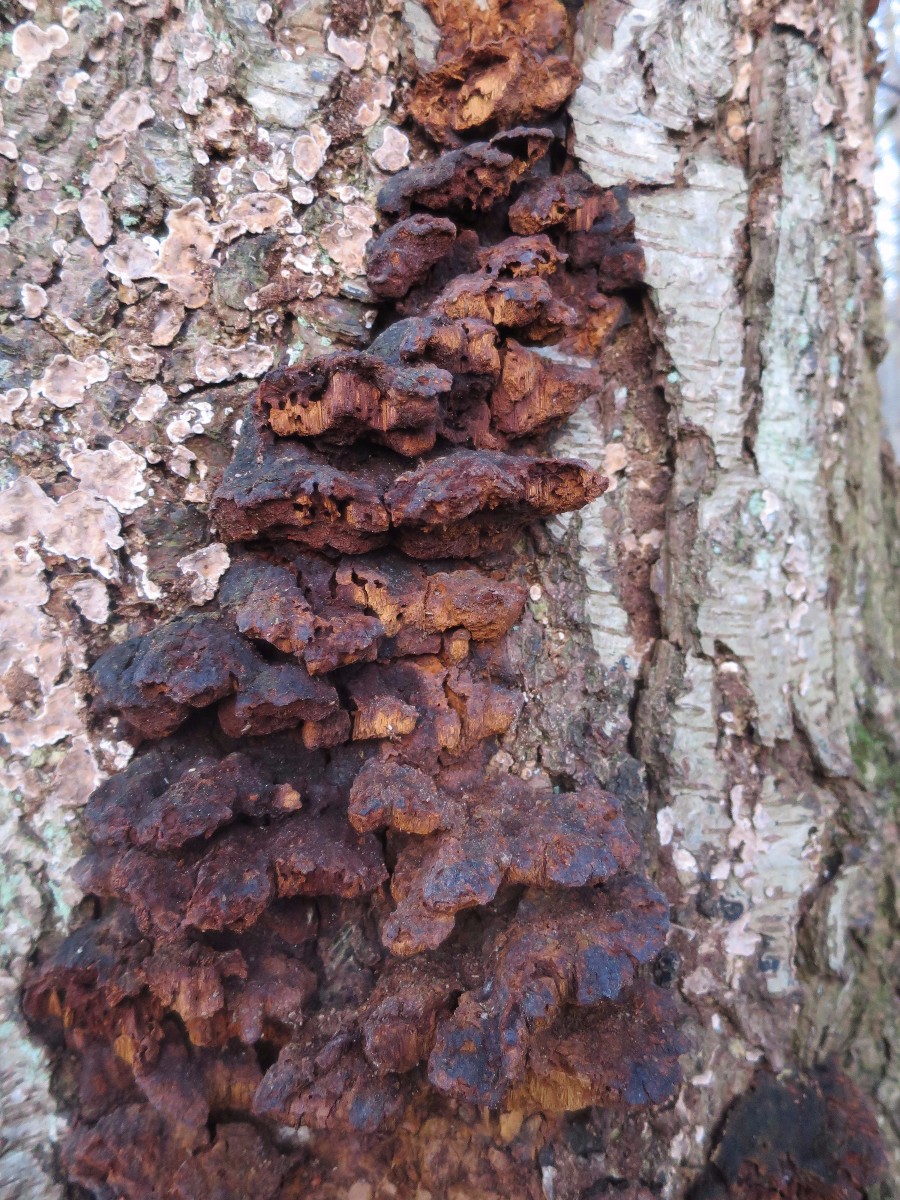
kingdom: Fungi
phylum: Basidiomycota
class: Agaricomycetes
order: Hymenochaetales
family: Hymenochaetaceae
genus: Xanthoporia
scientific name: Xanthoporia radiata
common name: elle-spejlporesvamp
